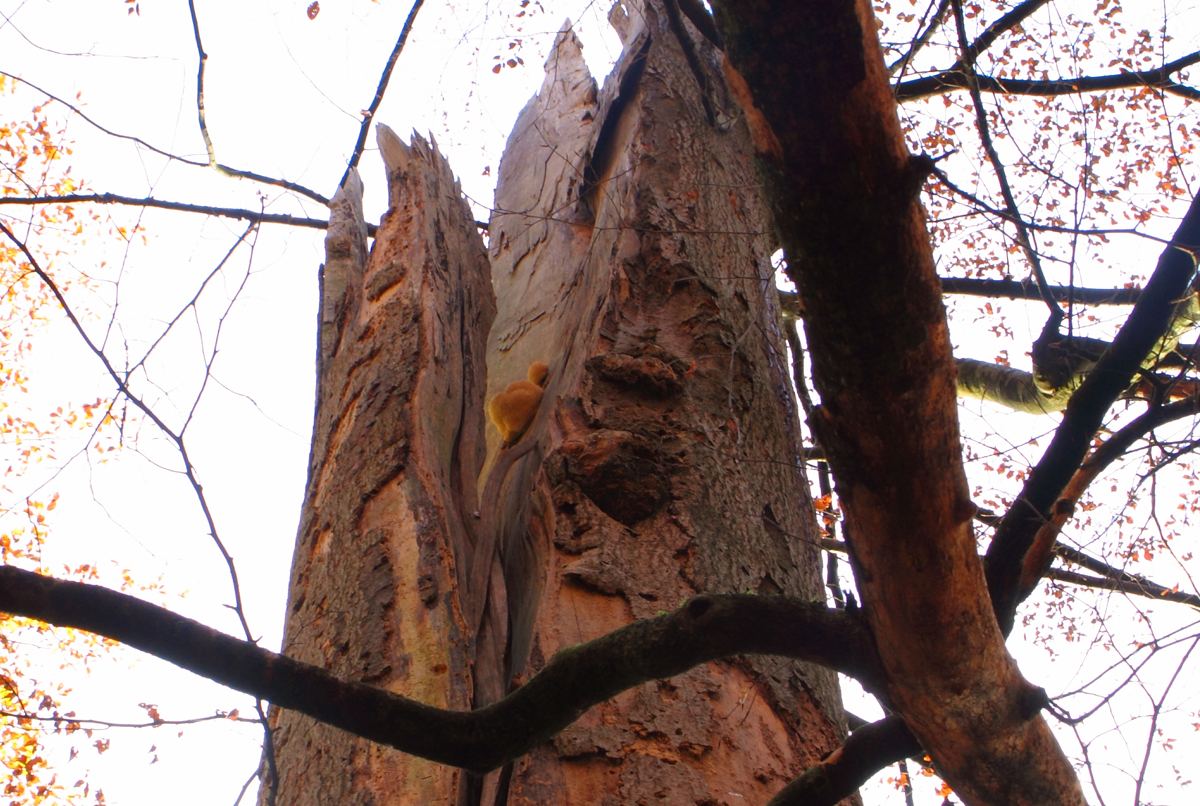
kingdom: Fungi
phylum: Basidiomycota
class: Agaricomycetes
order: Russulales
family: Hericiaceae
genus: Hericium
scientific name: Hericium erinaceus
